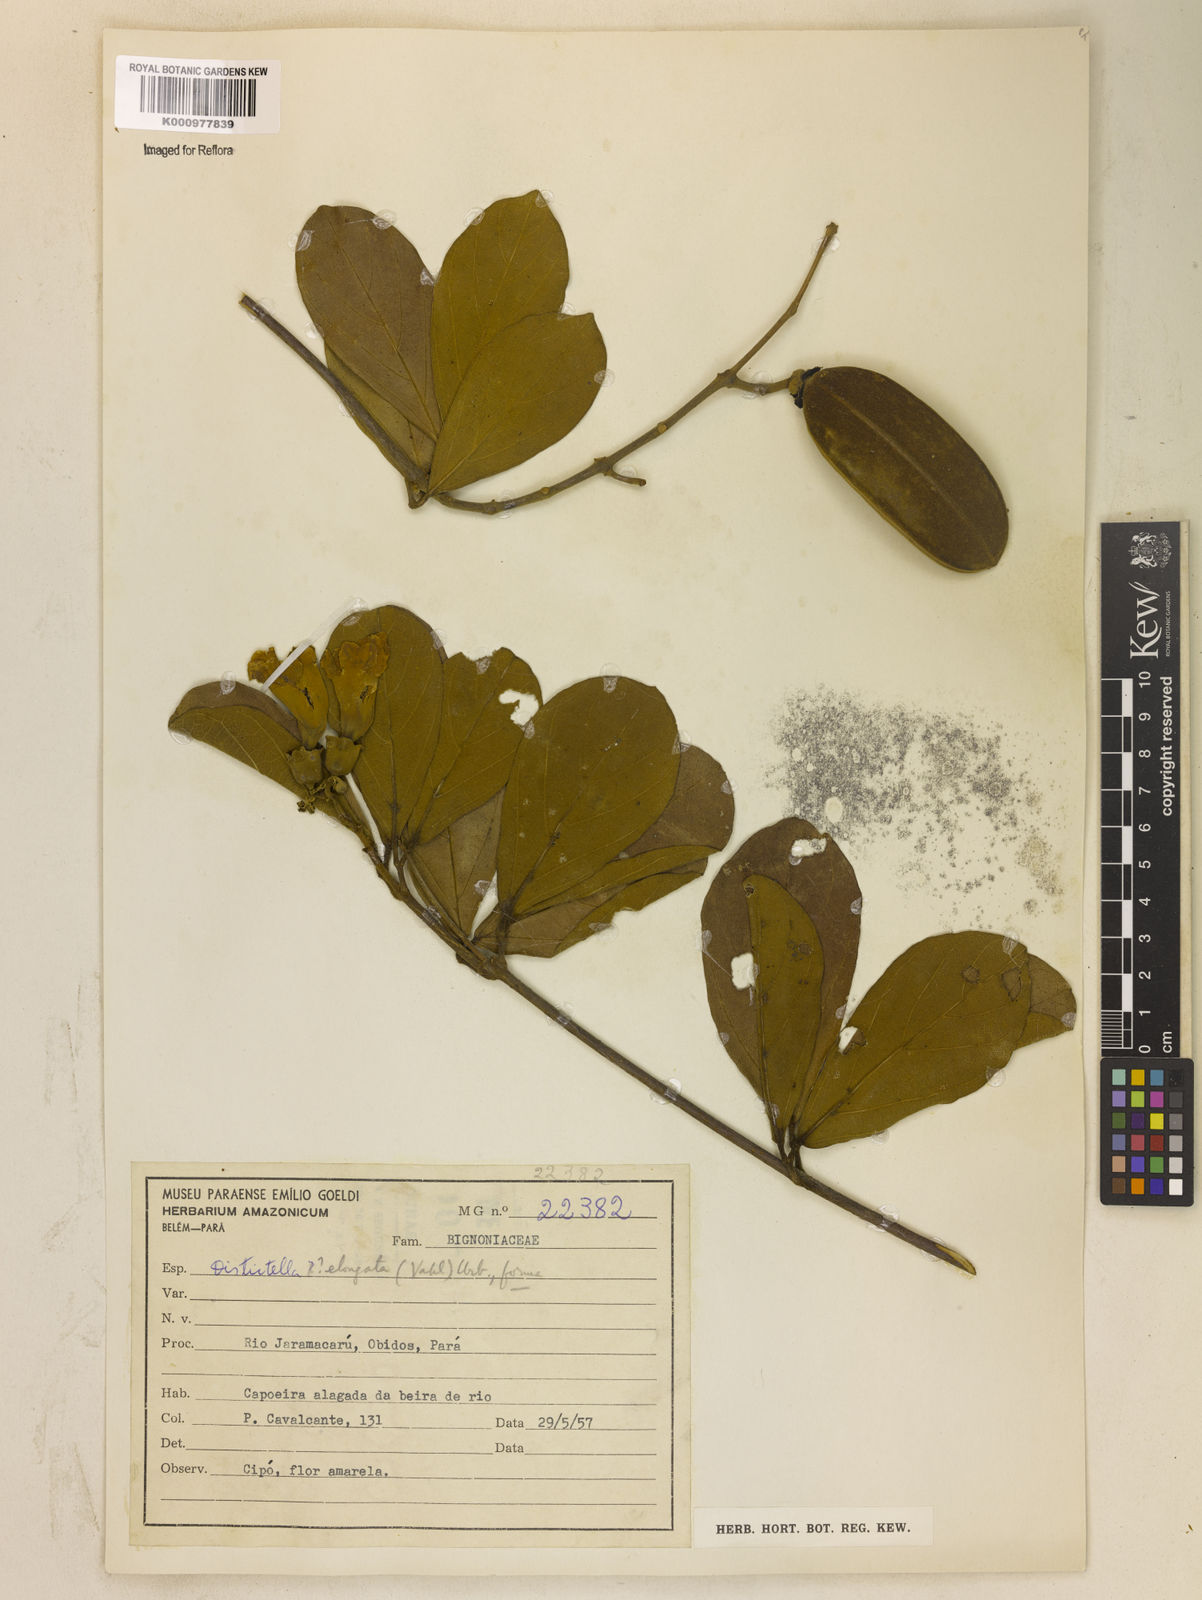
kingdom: Plantae
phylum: Tracheophyta
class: Magnoliopsida
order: Lamiales
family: Bignoniaceae
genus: Amphilophium
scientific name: Amphilophium elongatum
